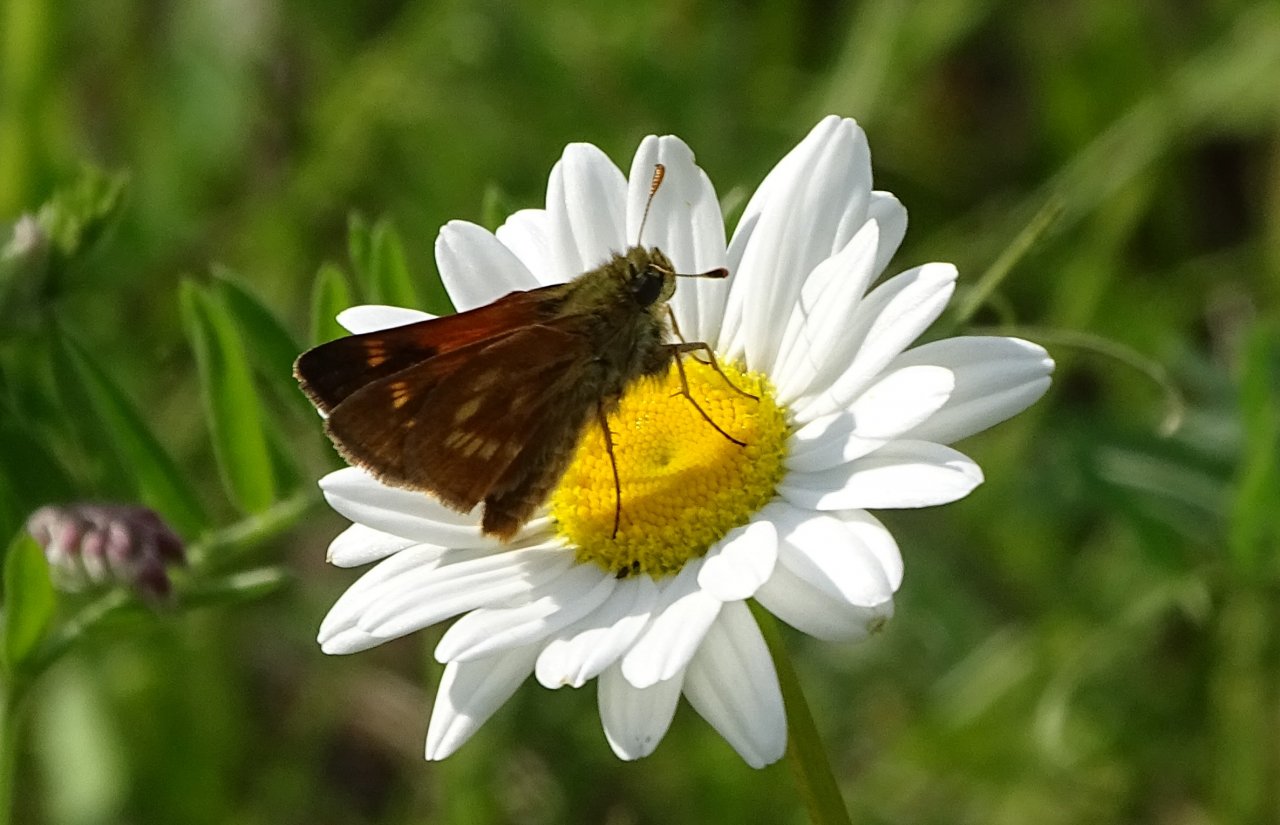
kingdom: Animalia
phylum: Arthropoda
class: Insecta
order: Lepidoptera
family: Hesperiidae
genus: Polites
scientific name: Polites
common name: Long Dash Skipper
